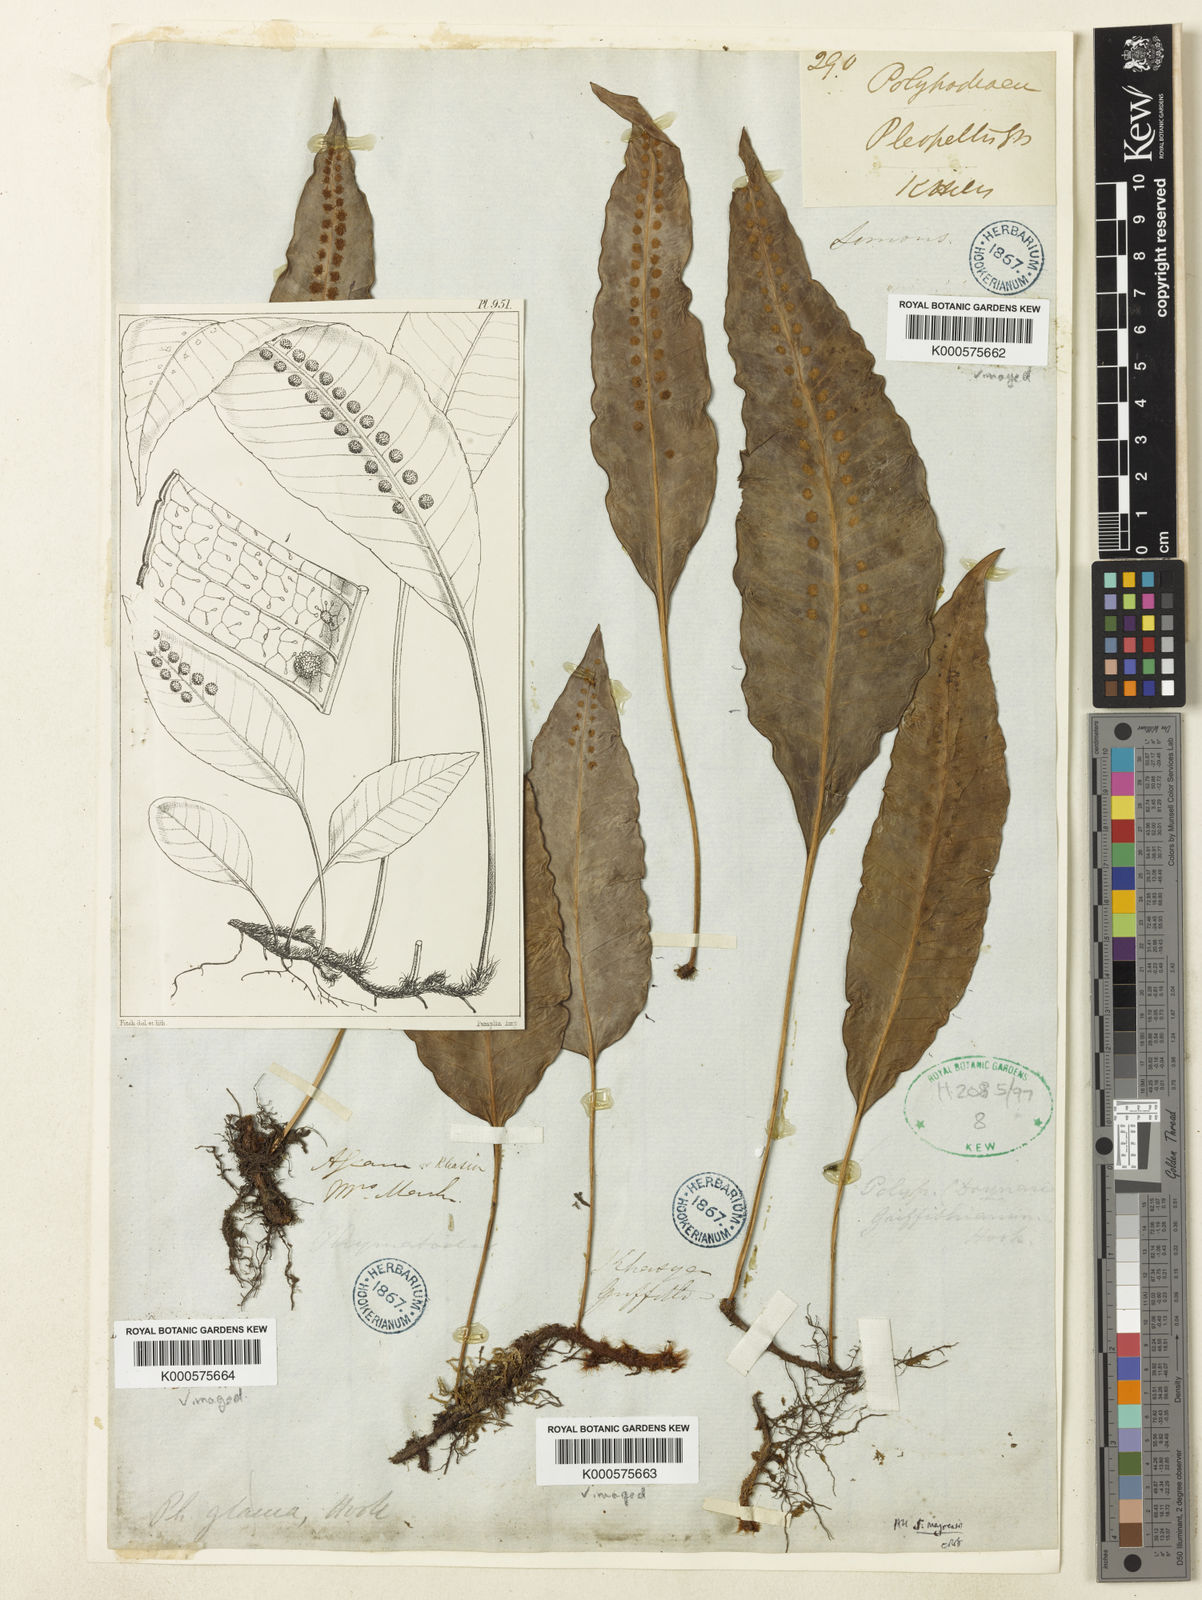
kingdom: Plantae
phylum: Tracheophyta
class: Polypodiopsida
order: Polypodiales
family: Polypodiaceae
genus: Selliguea
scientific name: Selliguea griffithiana
